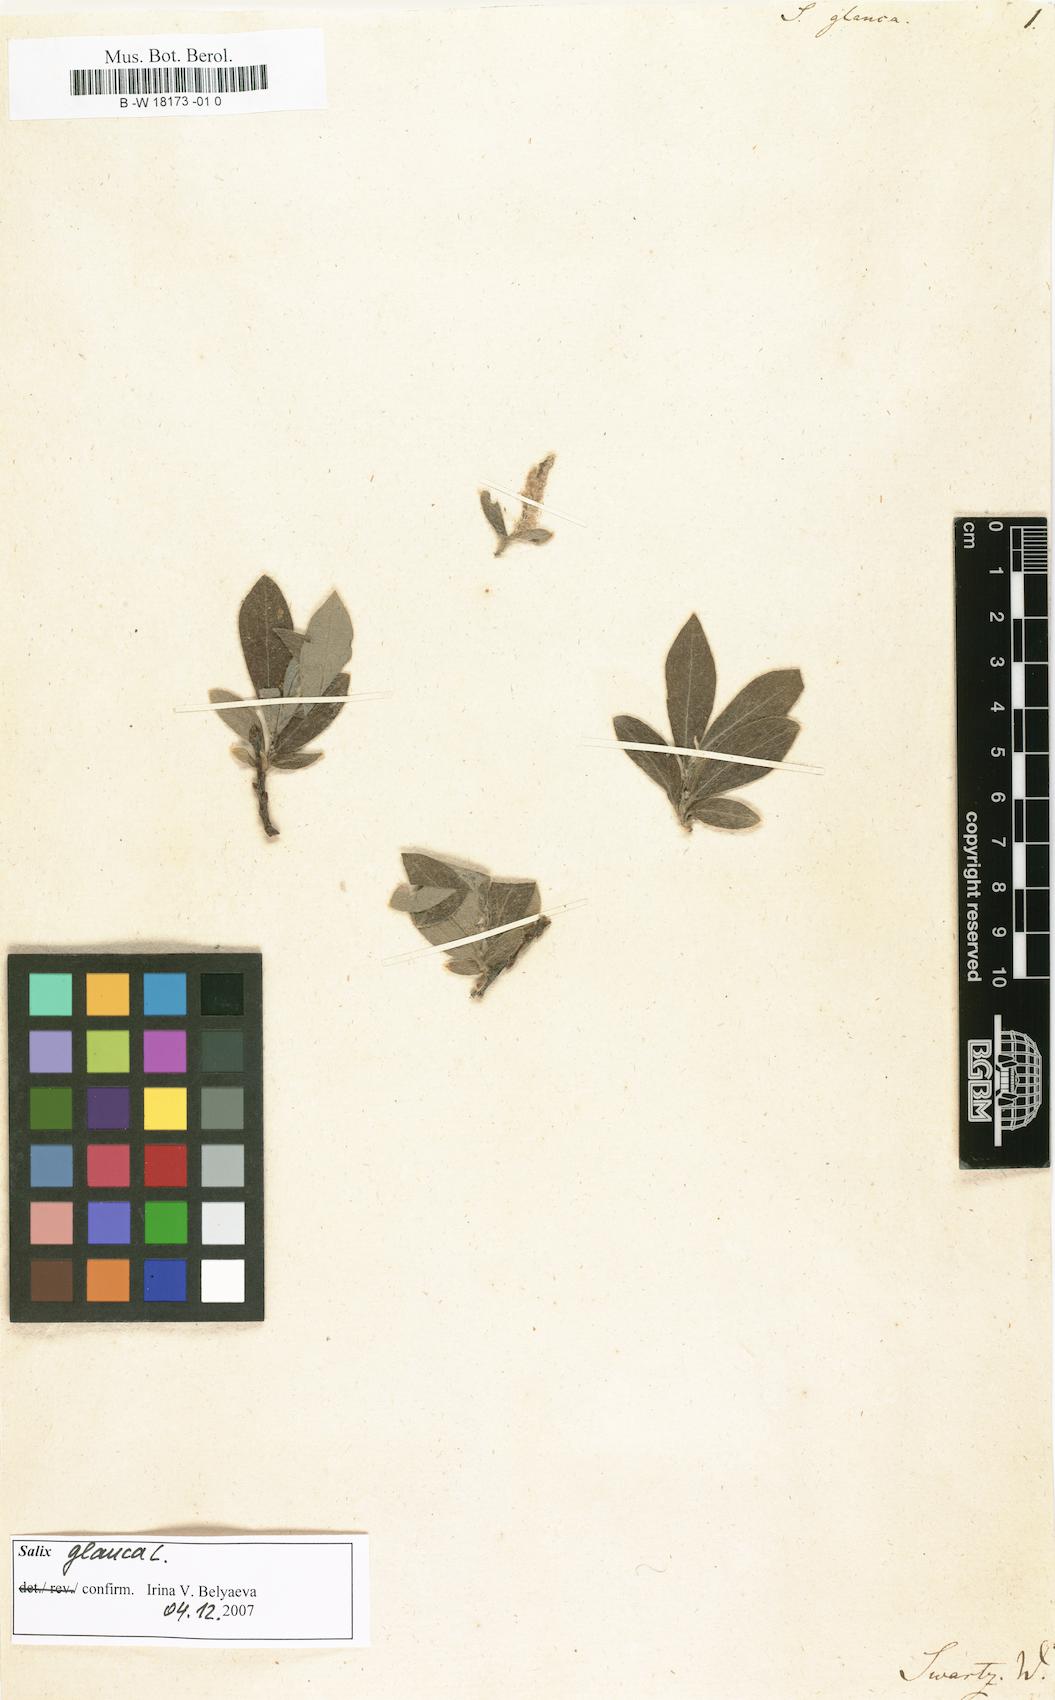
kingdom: Plantae
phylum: Tracheophyta
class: Magnoliopsida
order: Malpighiales
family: Salicaceae
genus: Salix
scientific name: Salix glauca
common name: Glaucous willow
